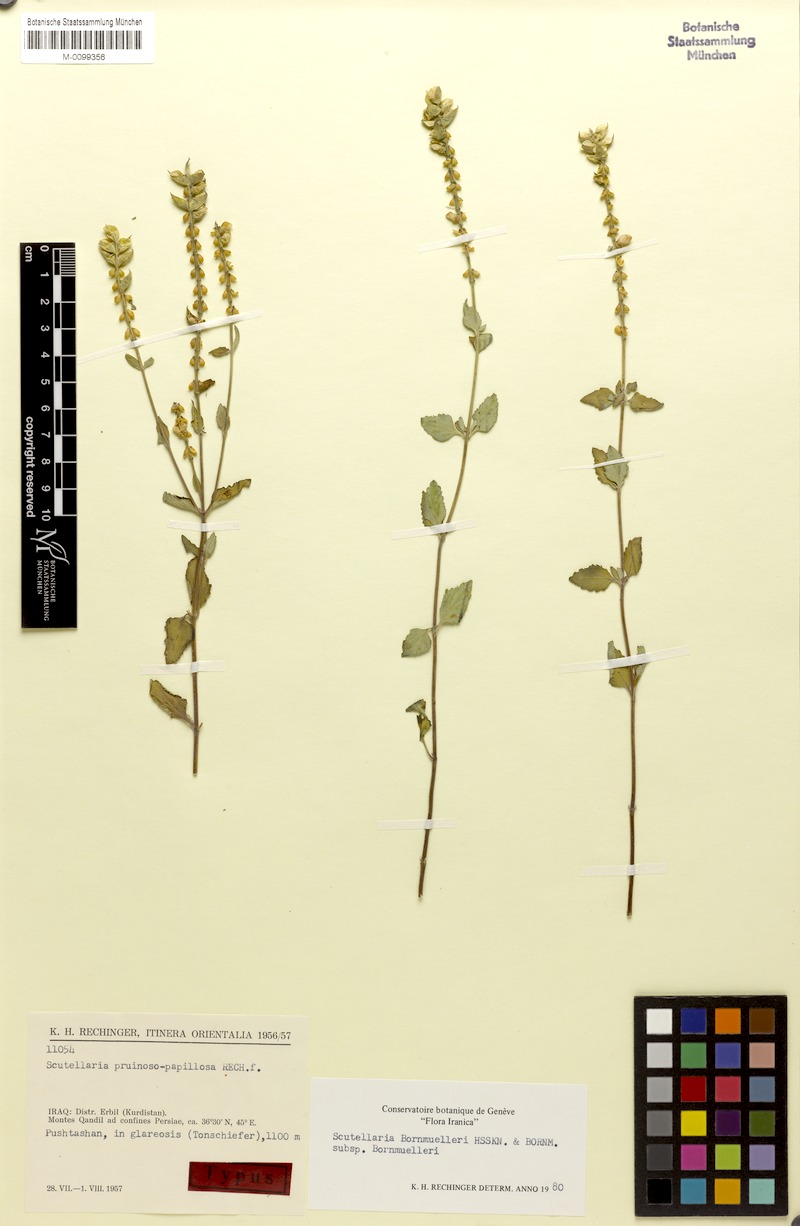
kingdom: Plantae
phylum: Tracheophyta
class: Magnoliopsida
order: Lamiales
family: Lamiaceae
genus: Scutellaria
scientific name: Scutellaria bornmuelleri
